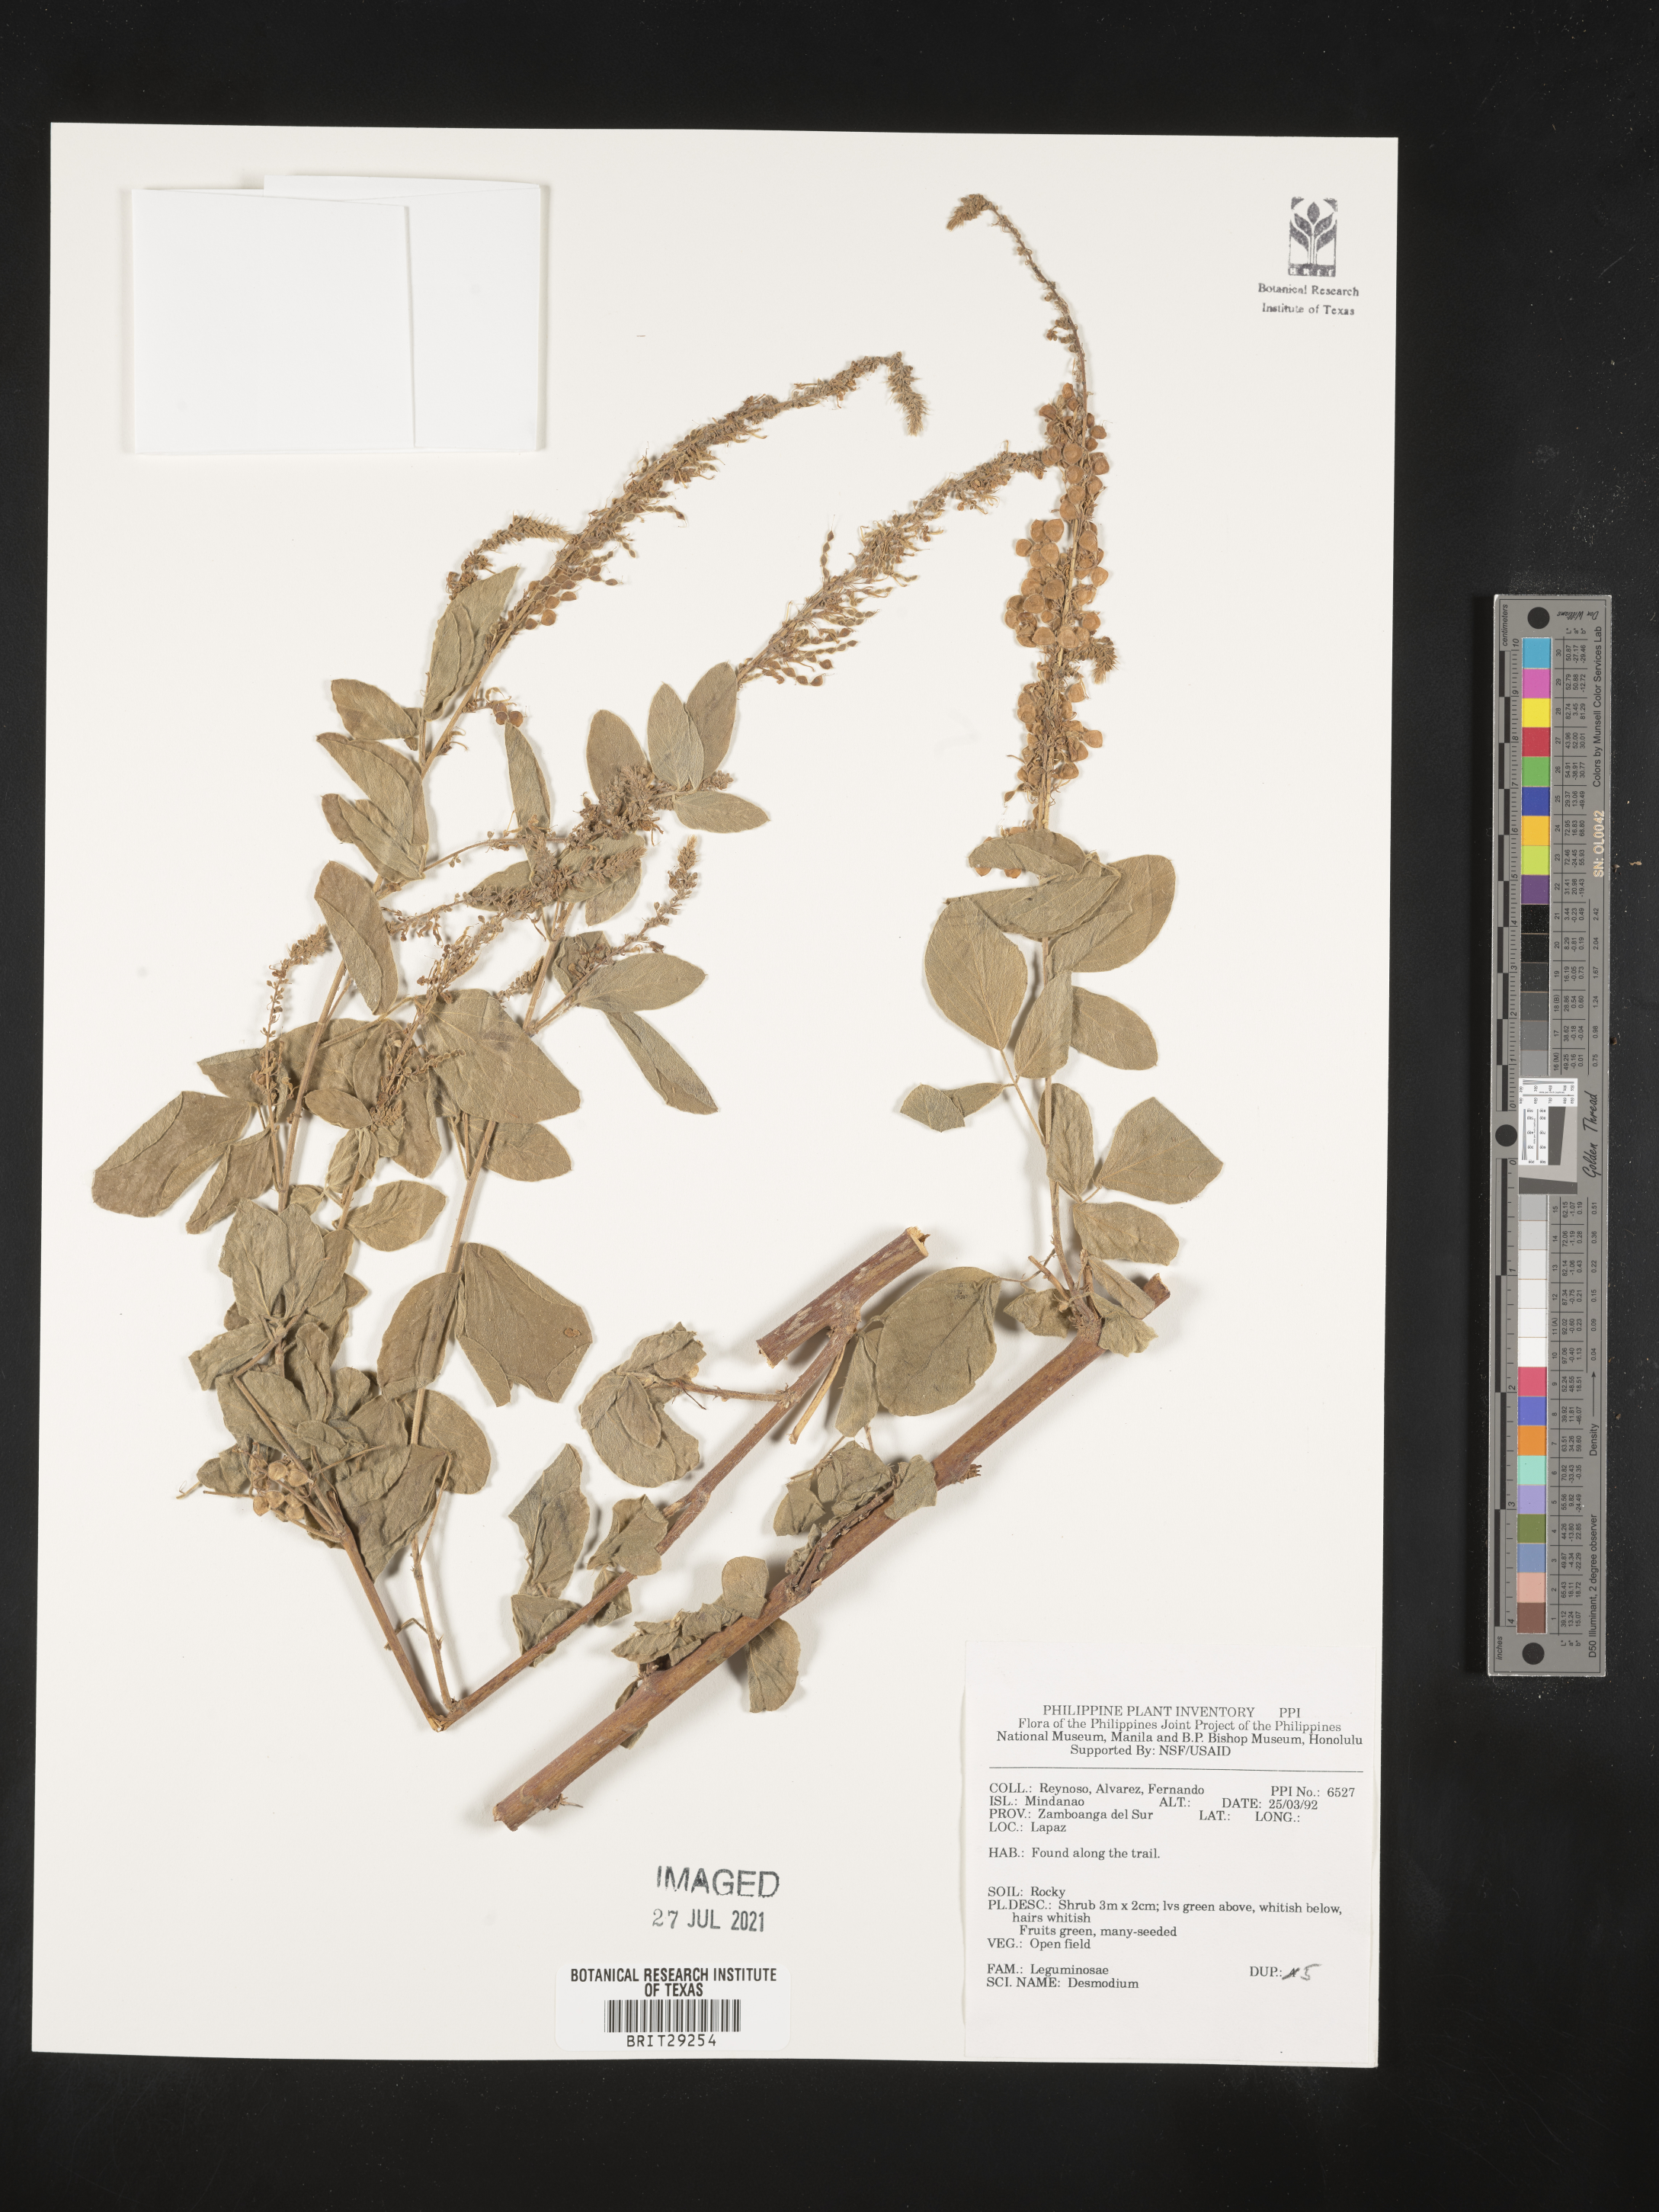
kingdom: Plantae
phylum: Tracheophyta
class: Magnoliopsida
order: Fabales
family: Fabaceae
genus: Desmodium
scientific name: Desmodium
